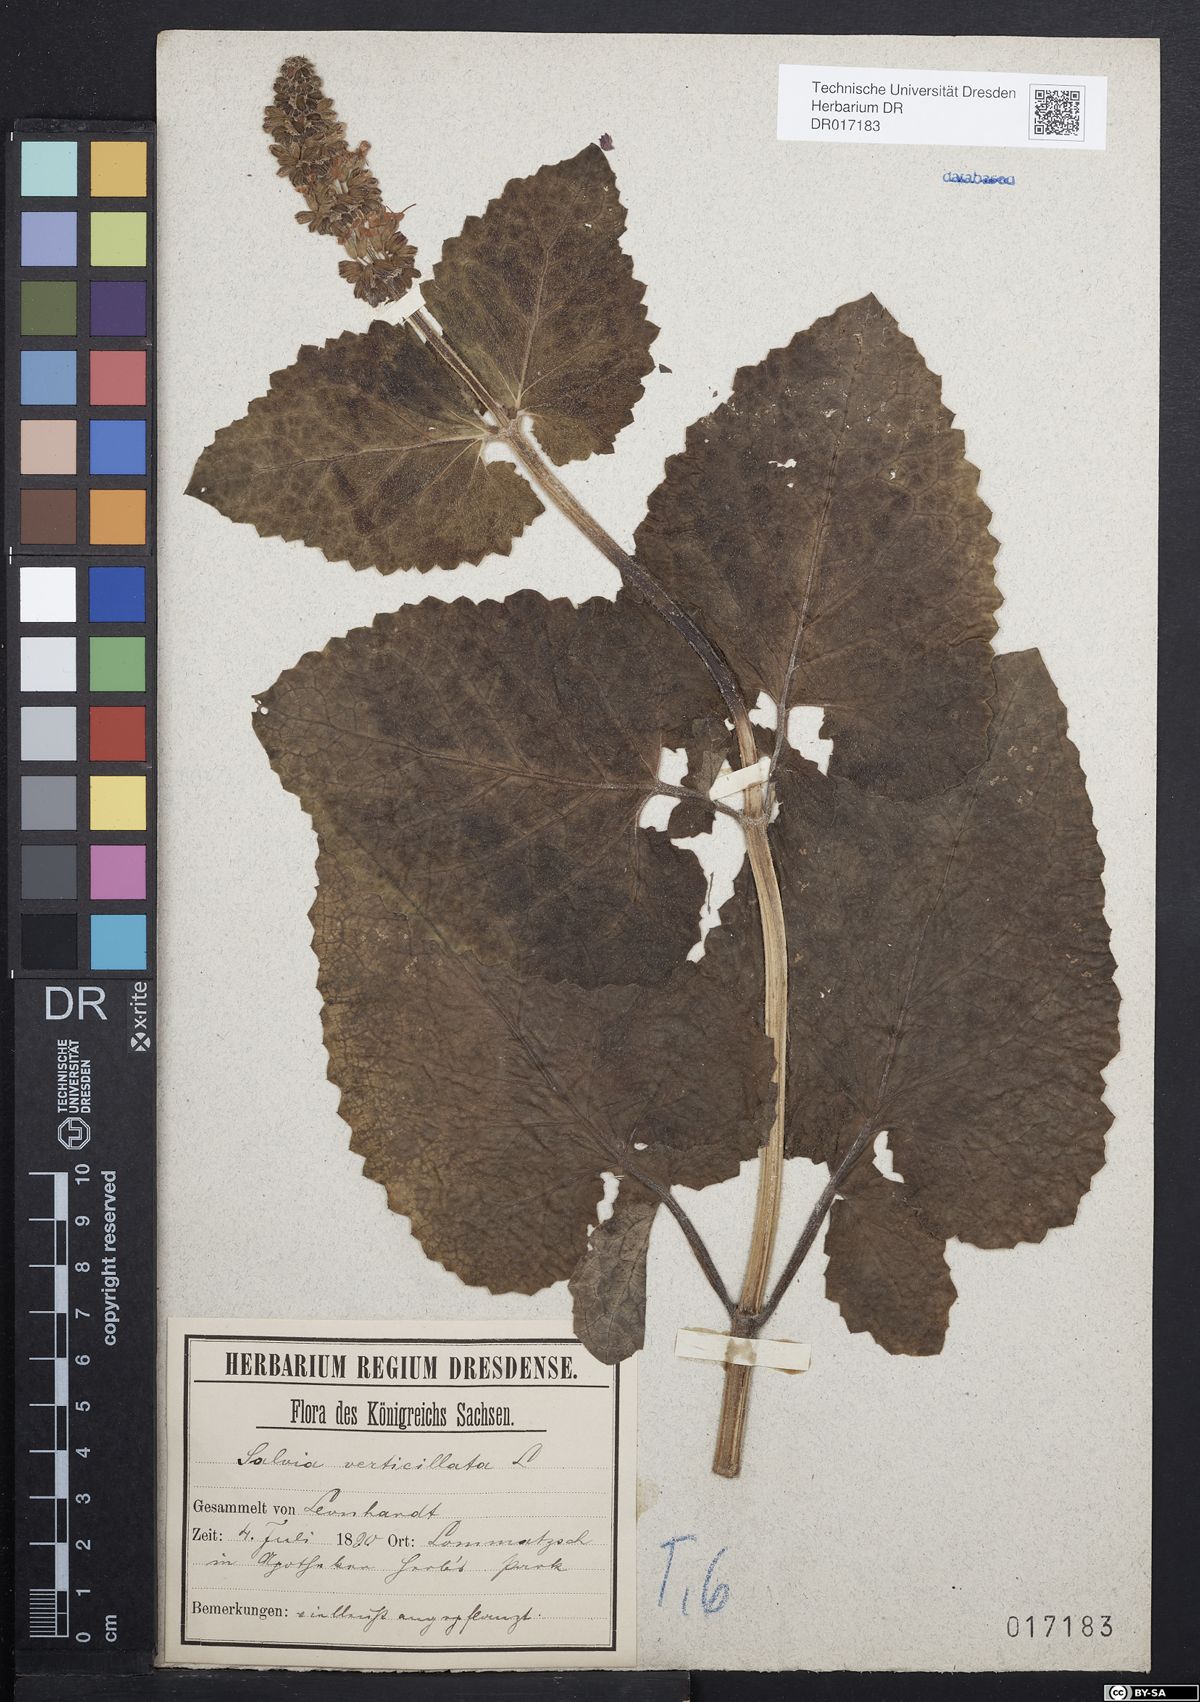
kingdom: Plantae
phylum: Tracheophyta
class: Magnoliopsida
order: Lamiales
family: Lamiaceae
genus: Salvia
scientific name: Salvia verticillata
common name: Whorled clary
